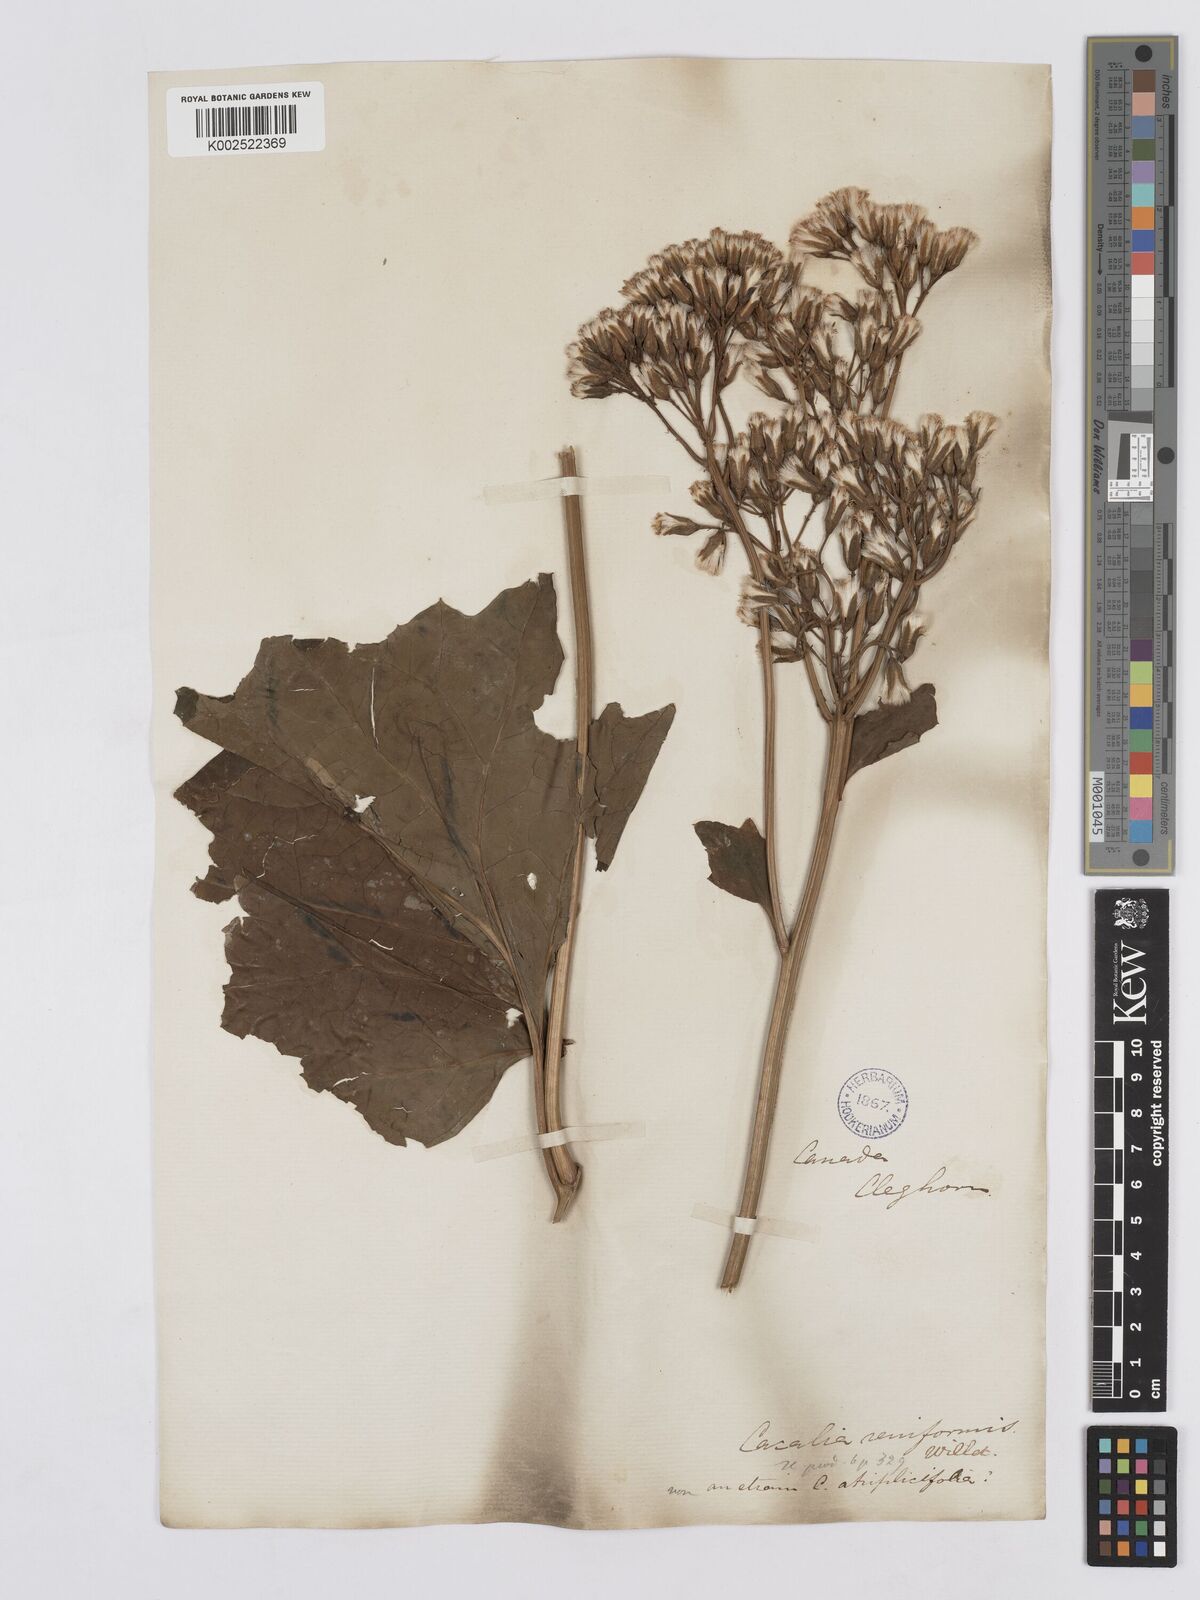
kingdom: Plantae
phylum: Tracheophyta
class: Magnoliopsida
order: Asterales
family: Asteraceae
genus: Arnoglossum
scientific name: Arnoglossum diversifolium
